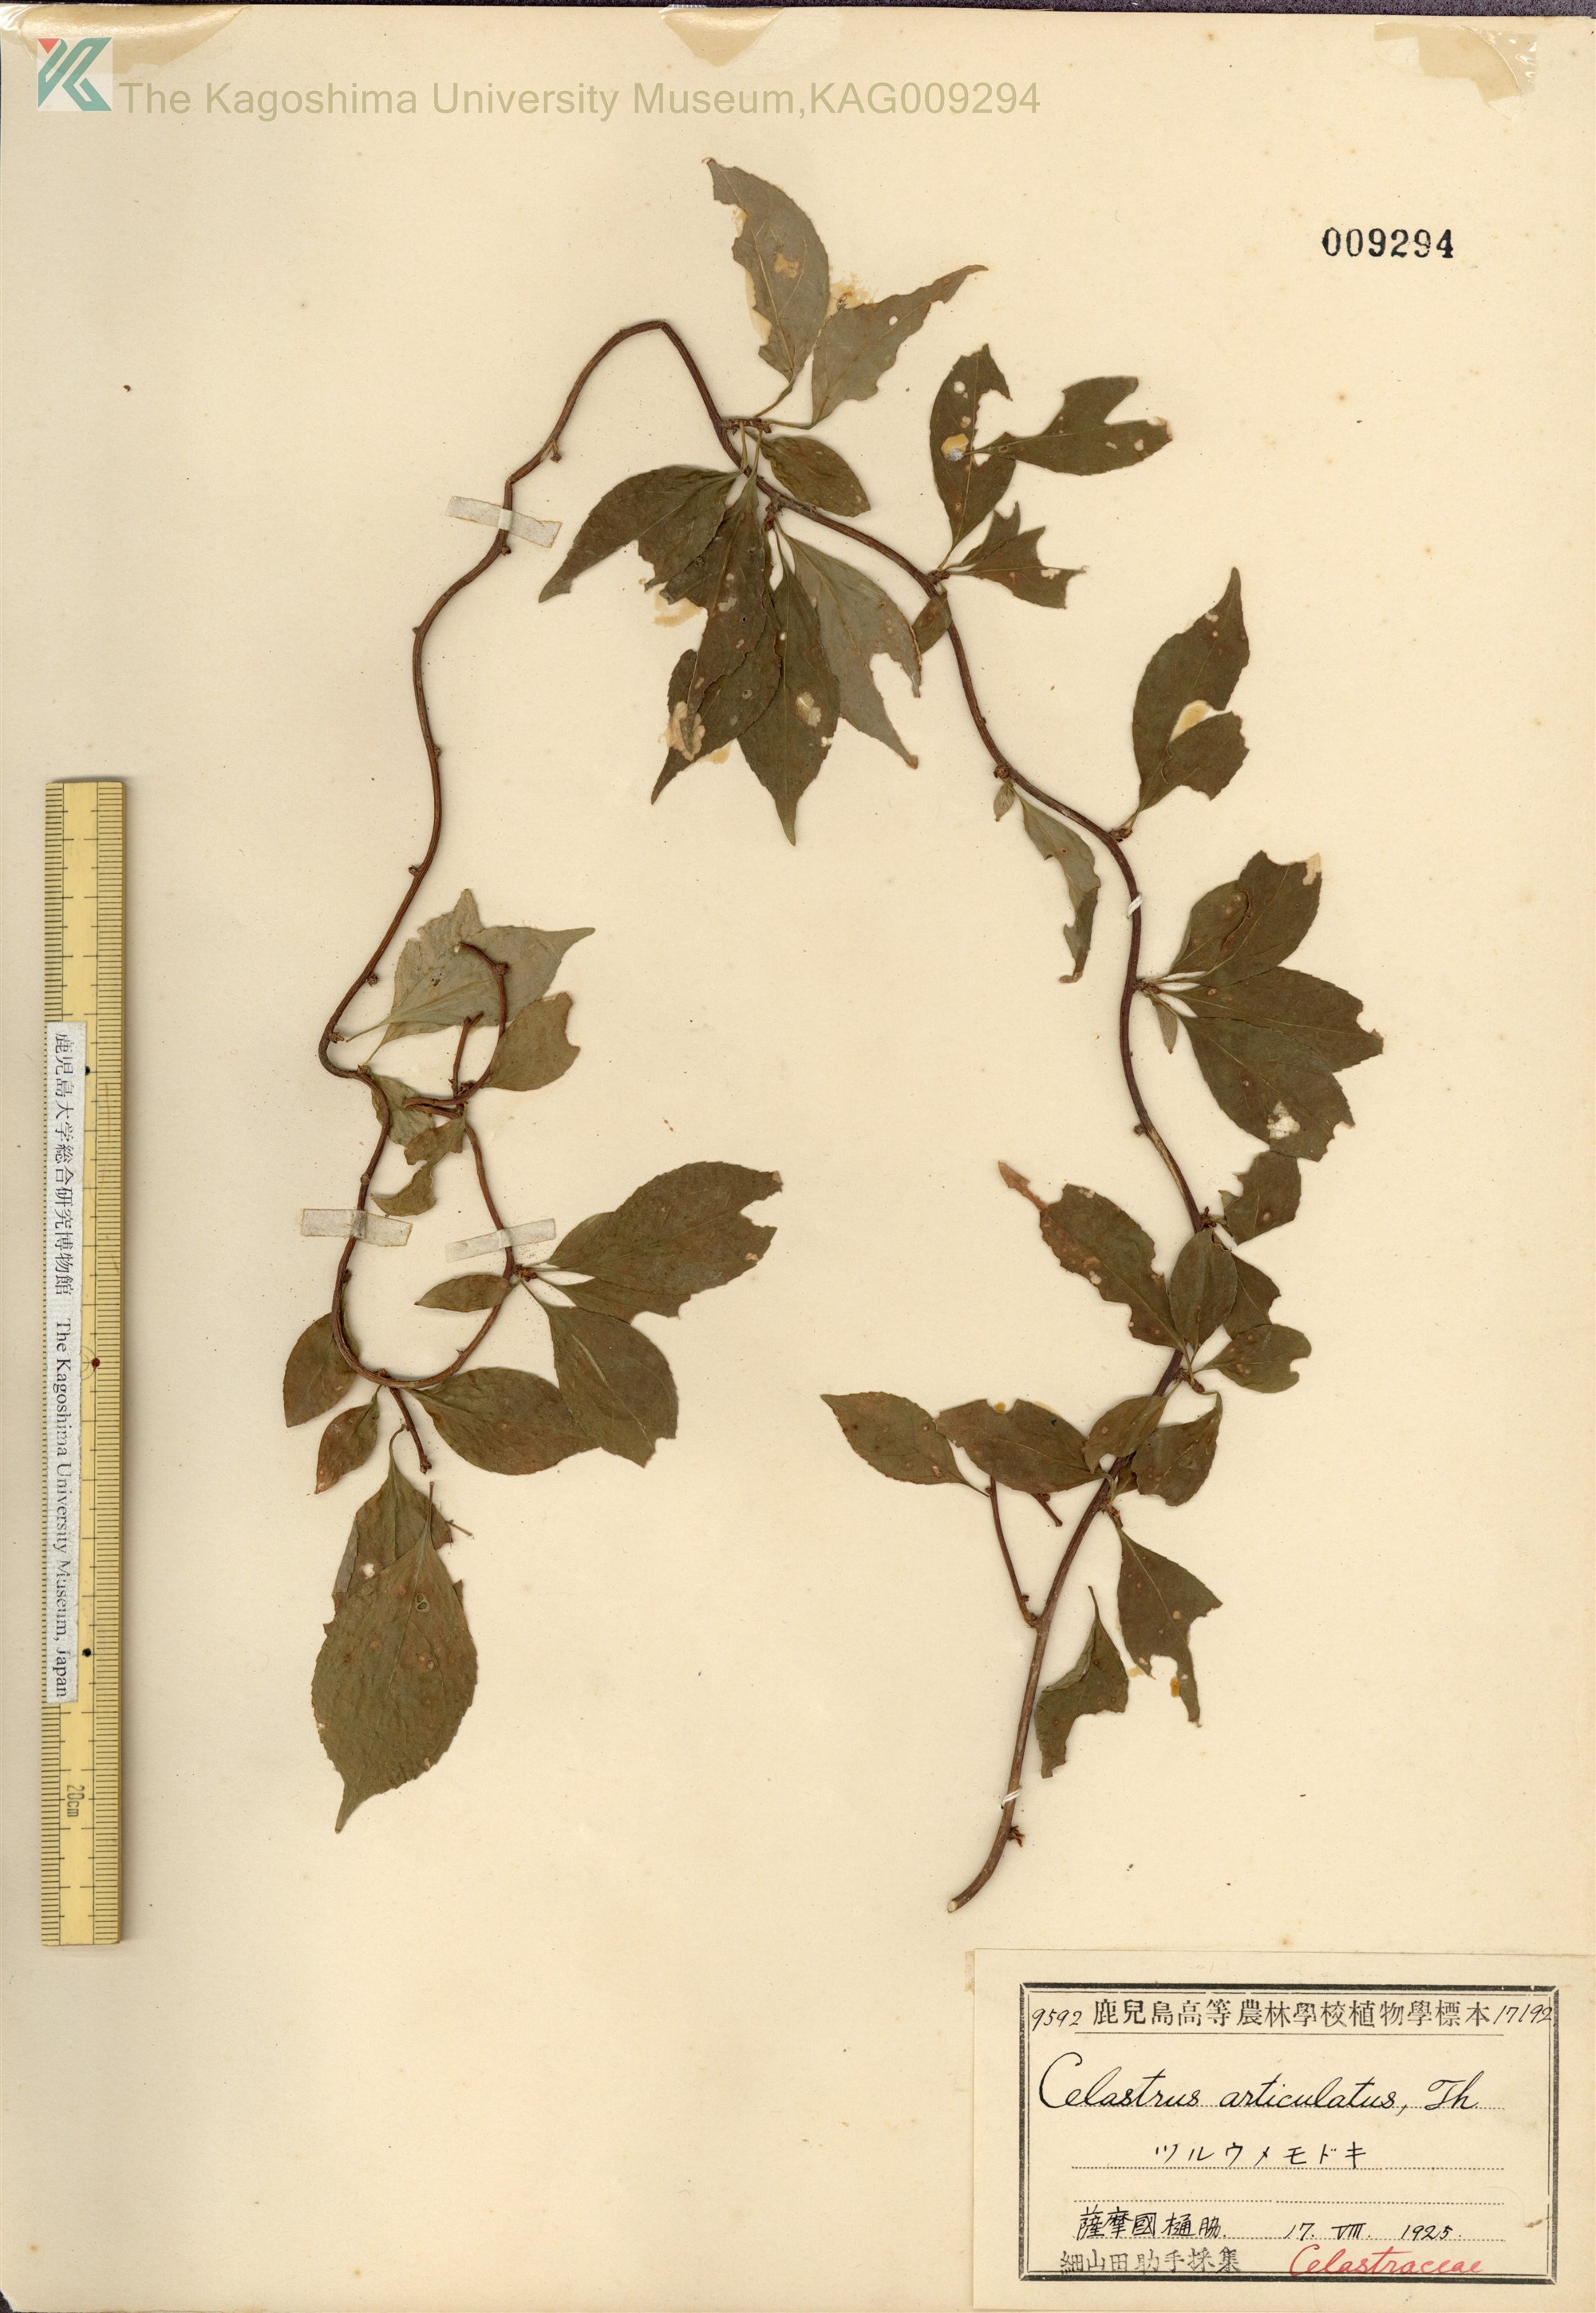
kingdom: Plantae
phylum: Tracheophyta
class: Magnoliopsida
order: Celastrales
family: Celastraceae
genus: Celastrus
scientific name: Celastrus punctatus
